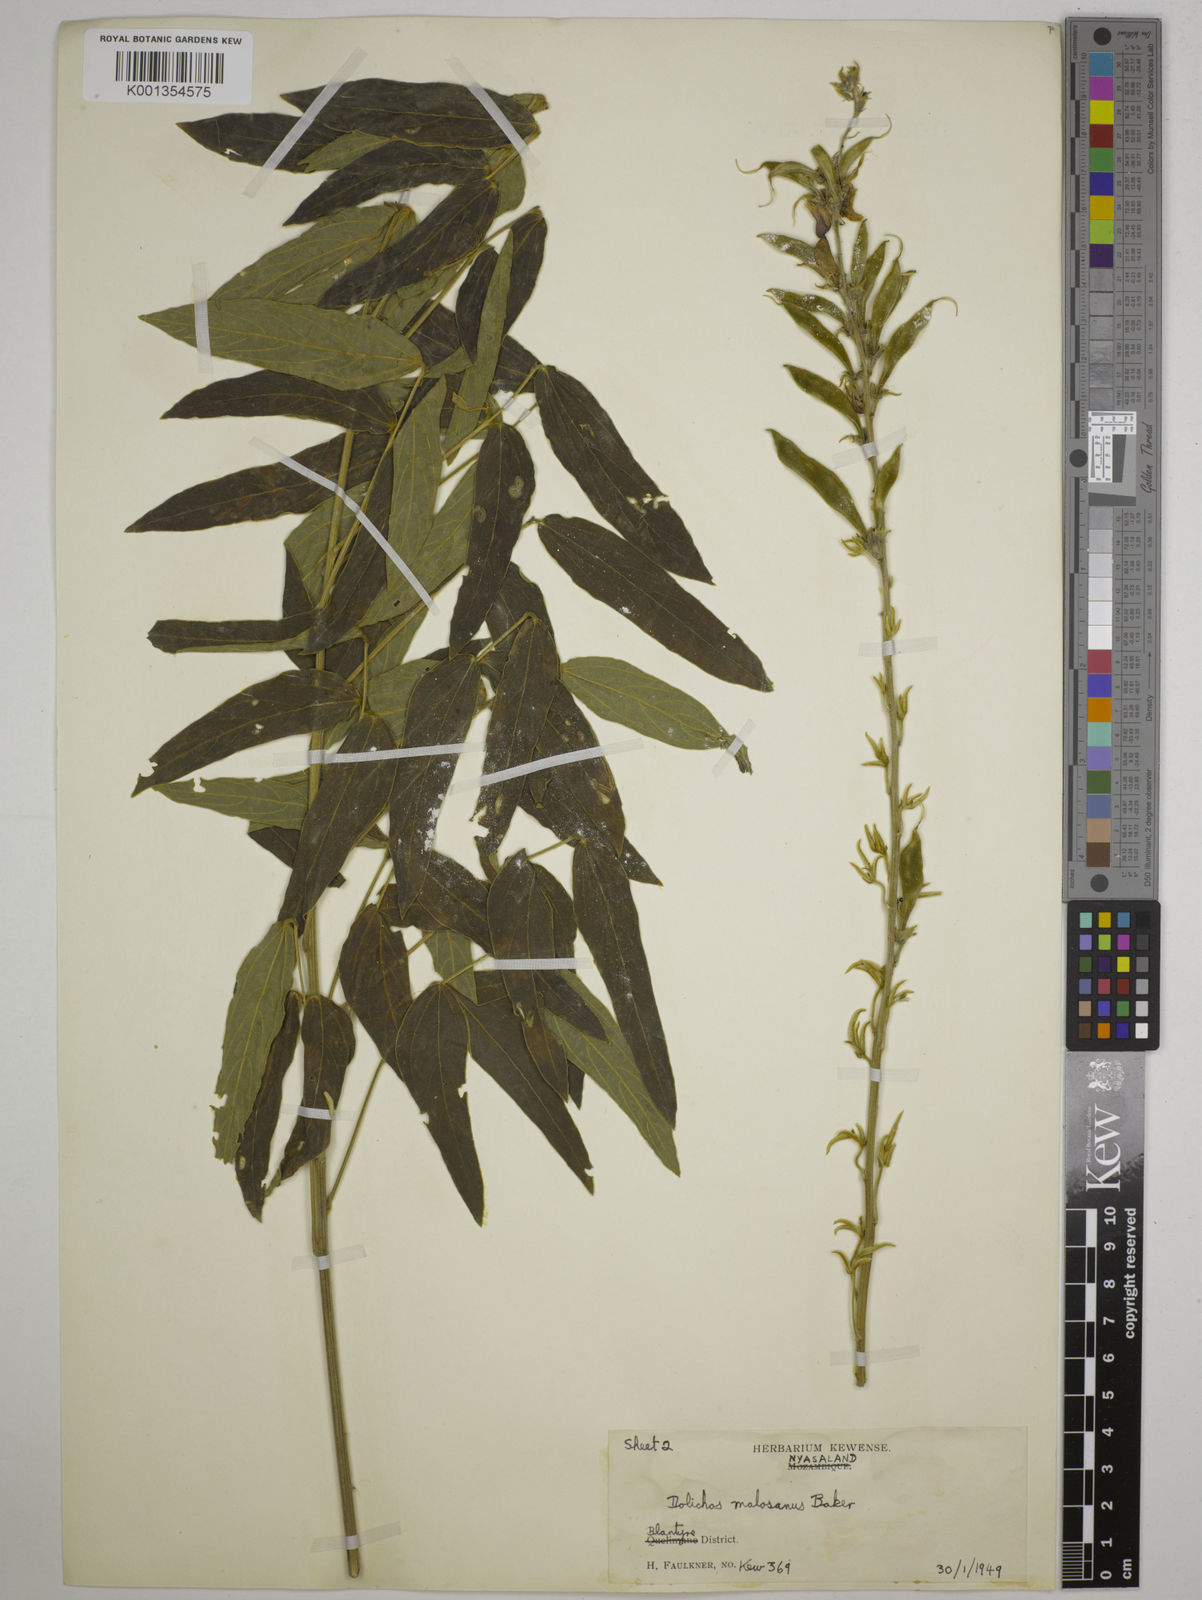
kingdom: Plantae
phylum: Tracheophyta
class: Magnoliopsida
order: Fabales
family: Fabaceae
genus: Dolichos
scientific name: Dolichos kilimandscharicus
